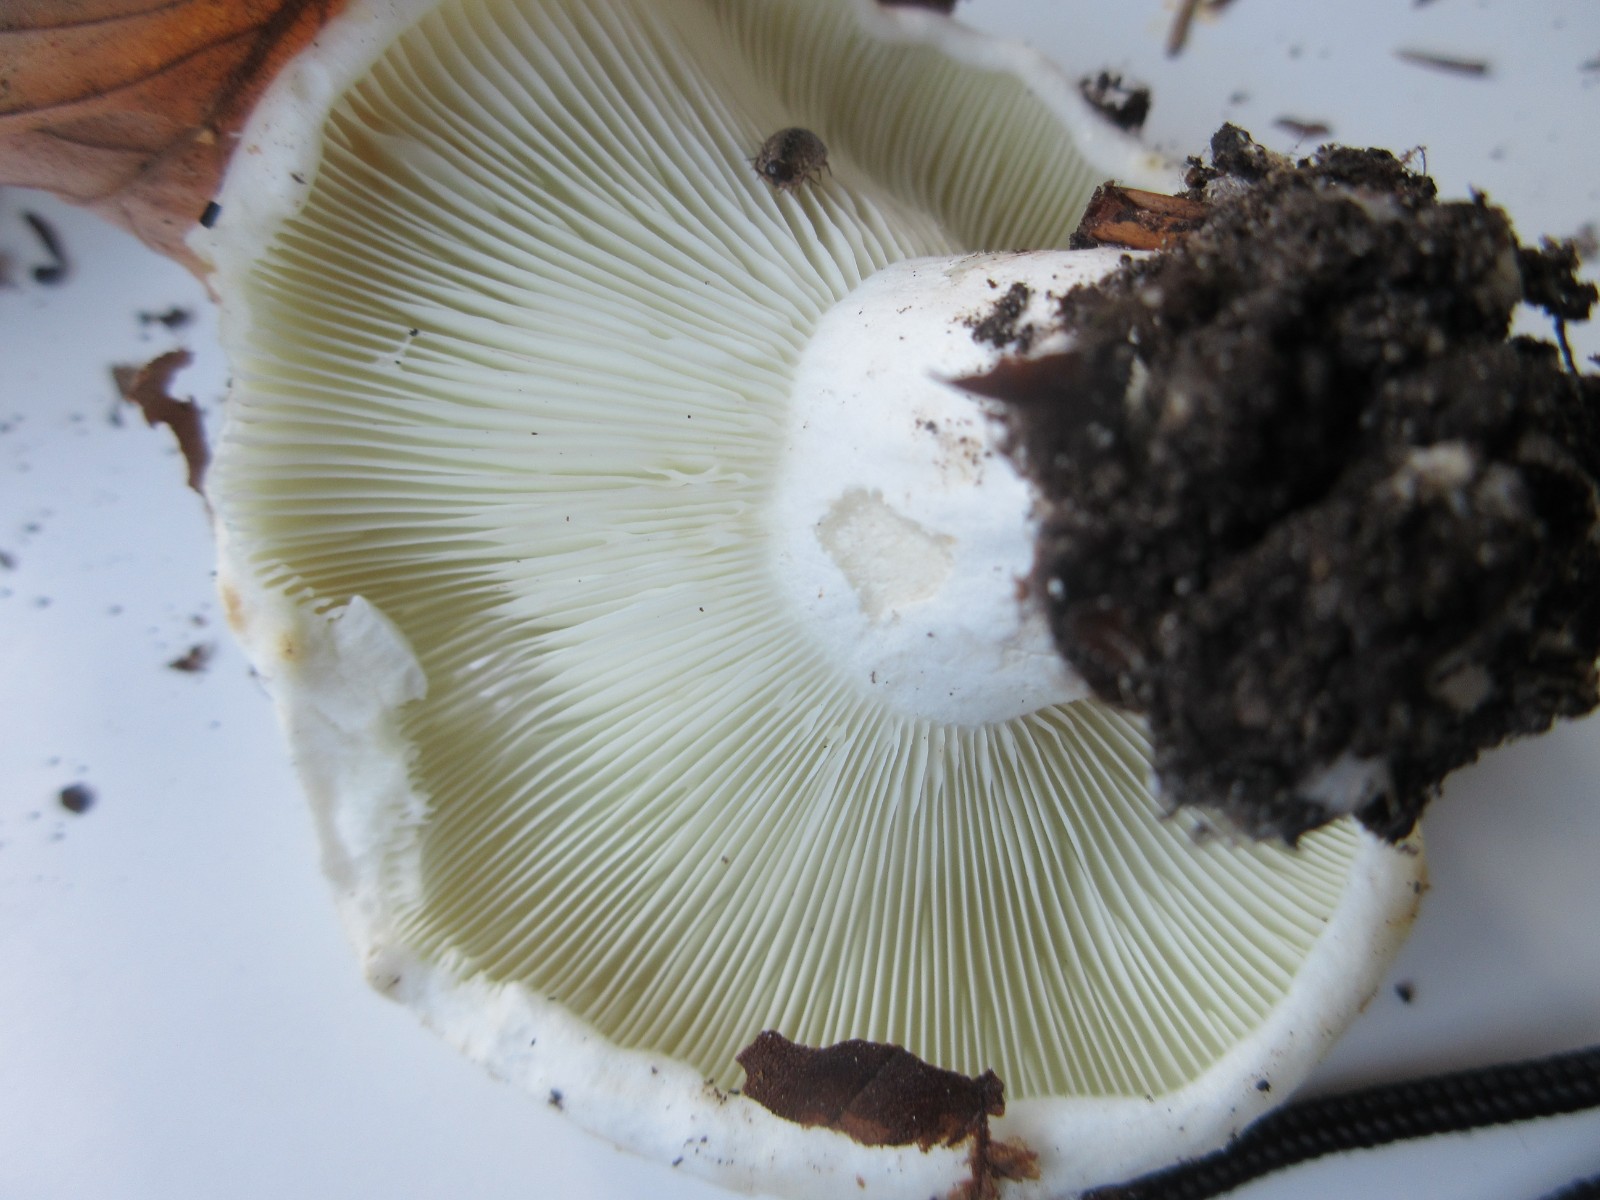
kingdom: Fungi
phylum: Basidiomycota
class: Agaricomycetes
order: Russulales
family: Russulaceae
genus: Russula
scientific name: Russula chloroides
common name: grønhalset tragt-skørhat
